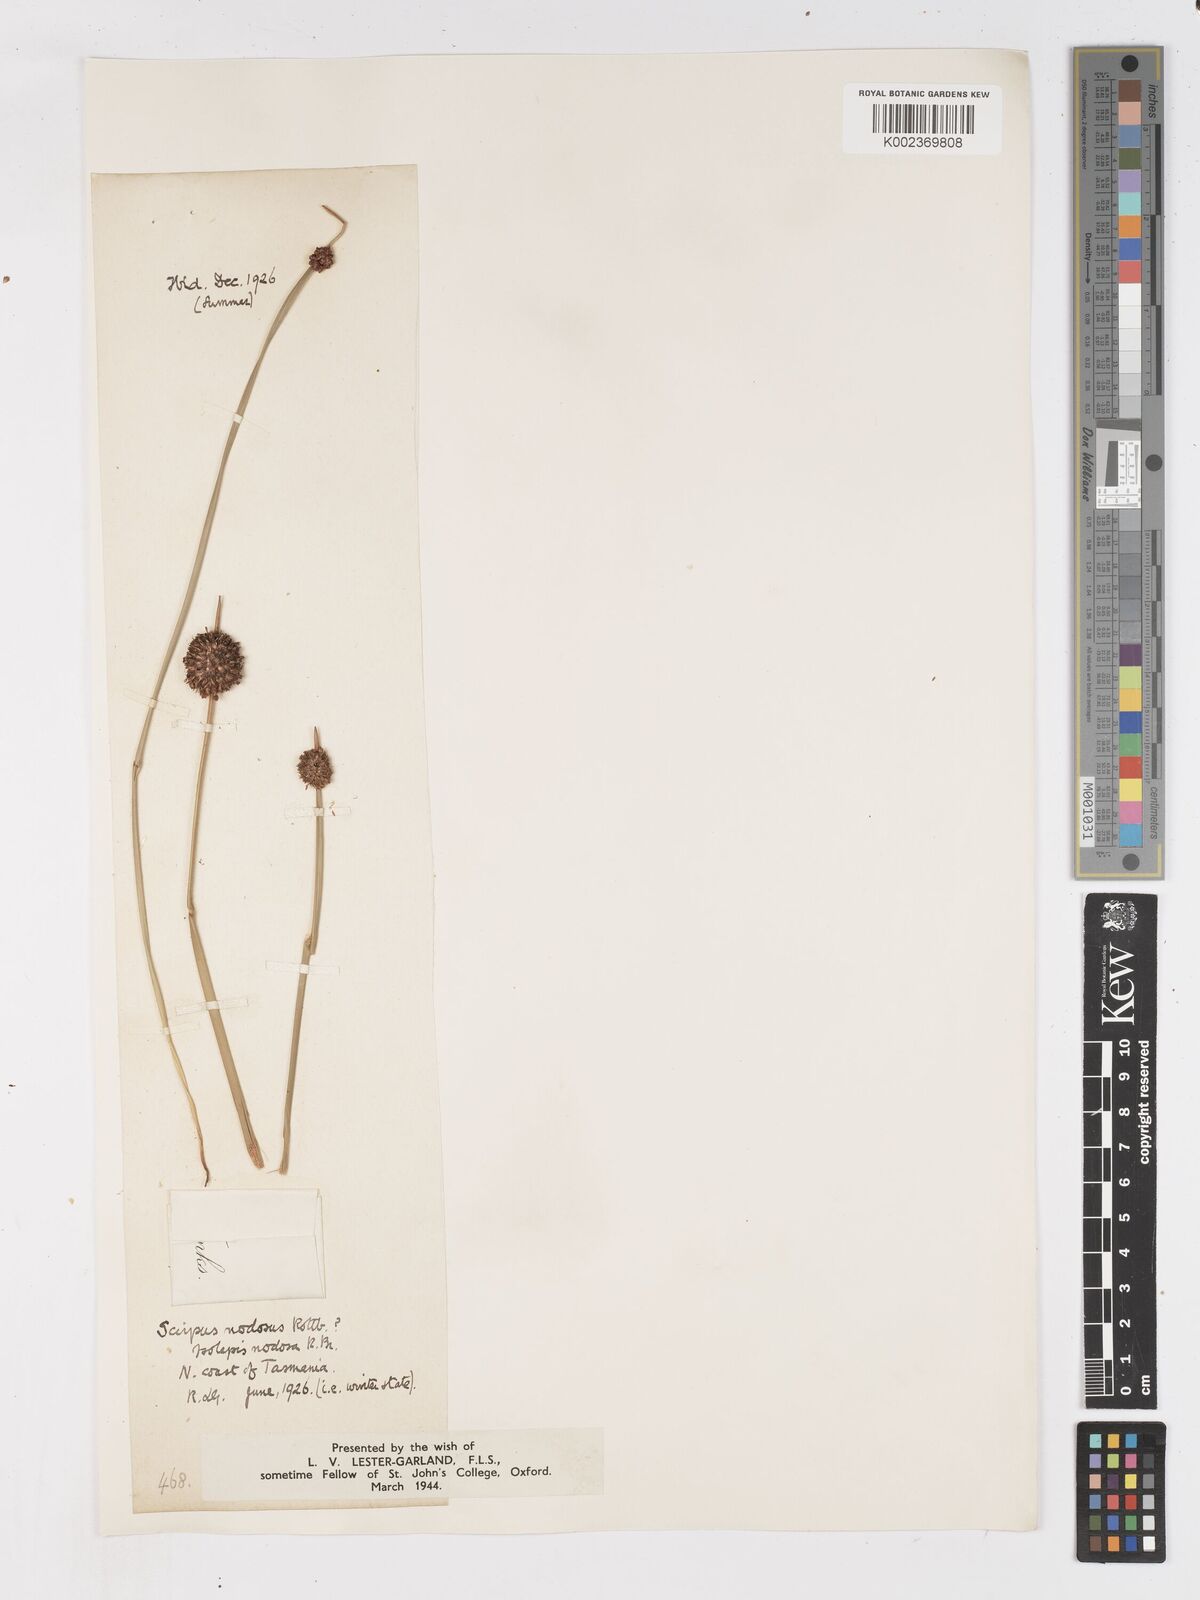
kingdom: Plantae
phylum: Tracheophyta
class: Liliopsida
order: Poales
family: Cyperaceae
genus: Ficinia
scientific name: Ficinia nodosa
